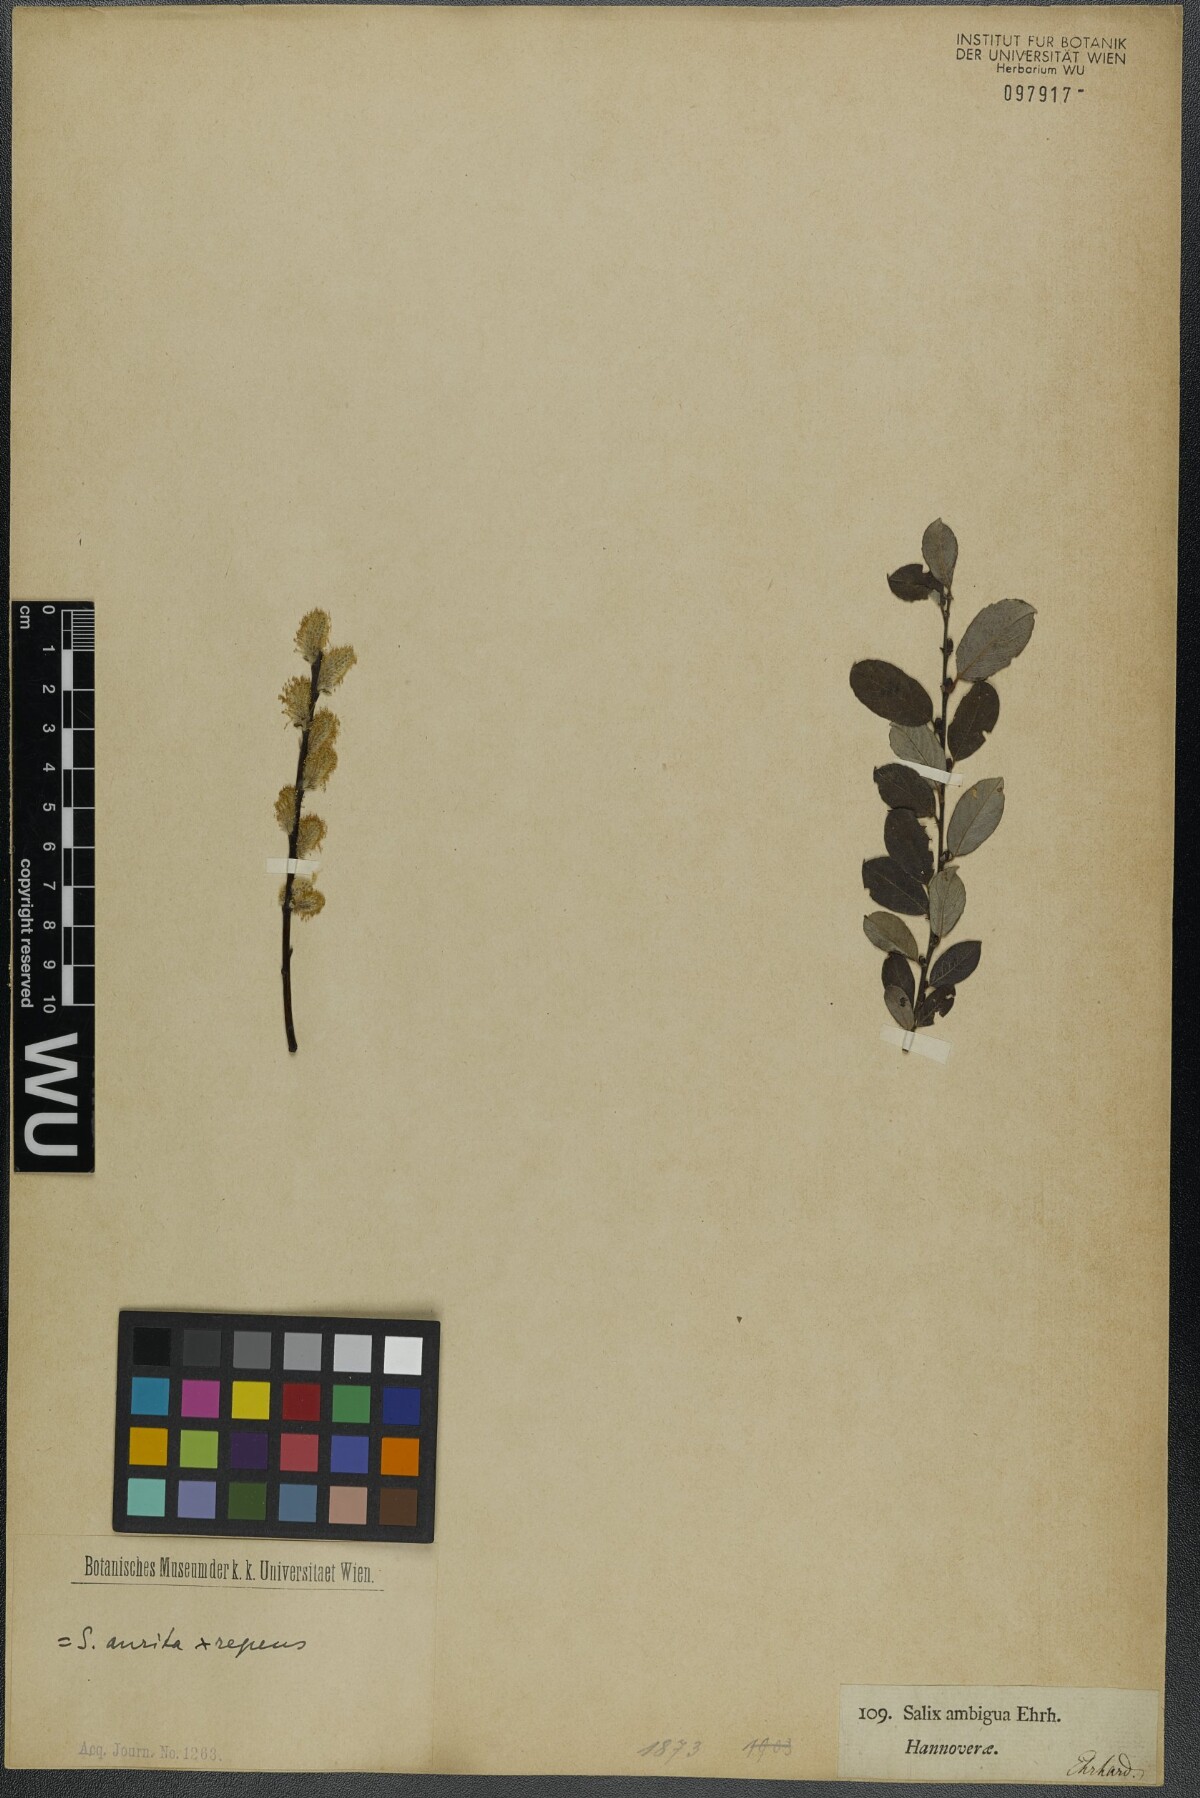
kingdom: Plantae
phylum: Tracheophyta
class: Magnoliopsida
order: Malpighiales
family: Salicaceae
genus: Salix
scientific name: Salix ambigua
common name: Puzzle willow
